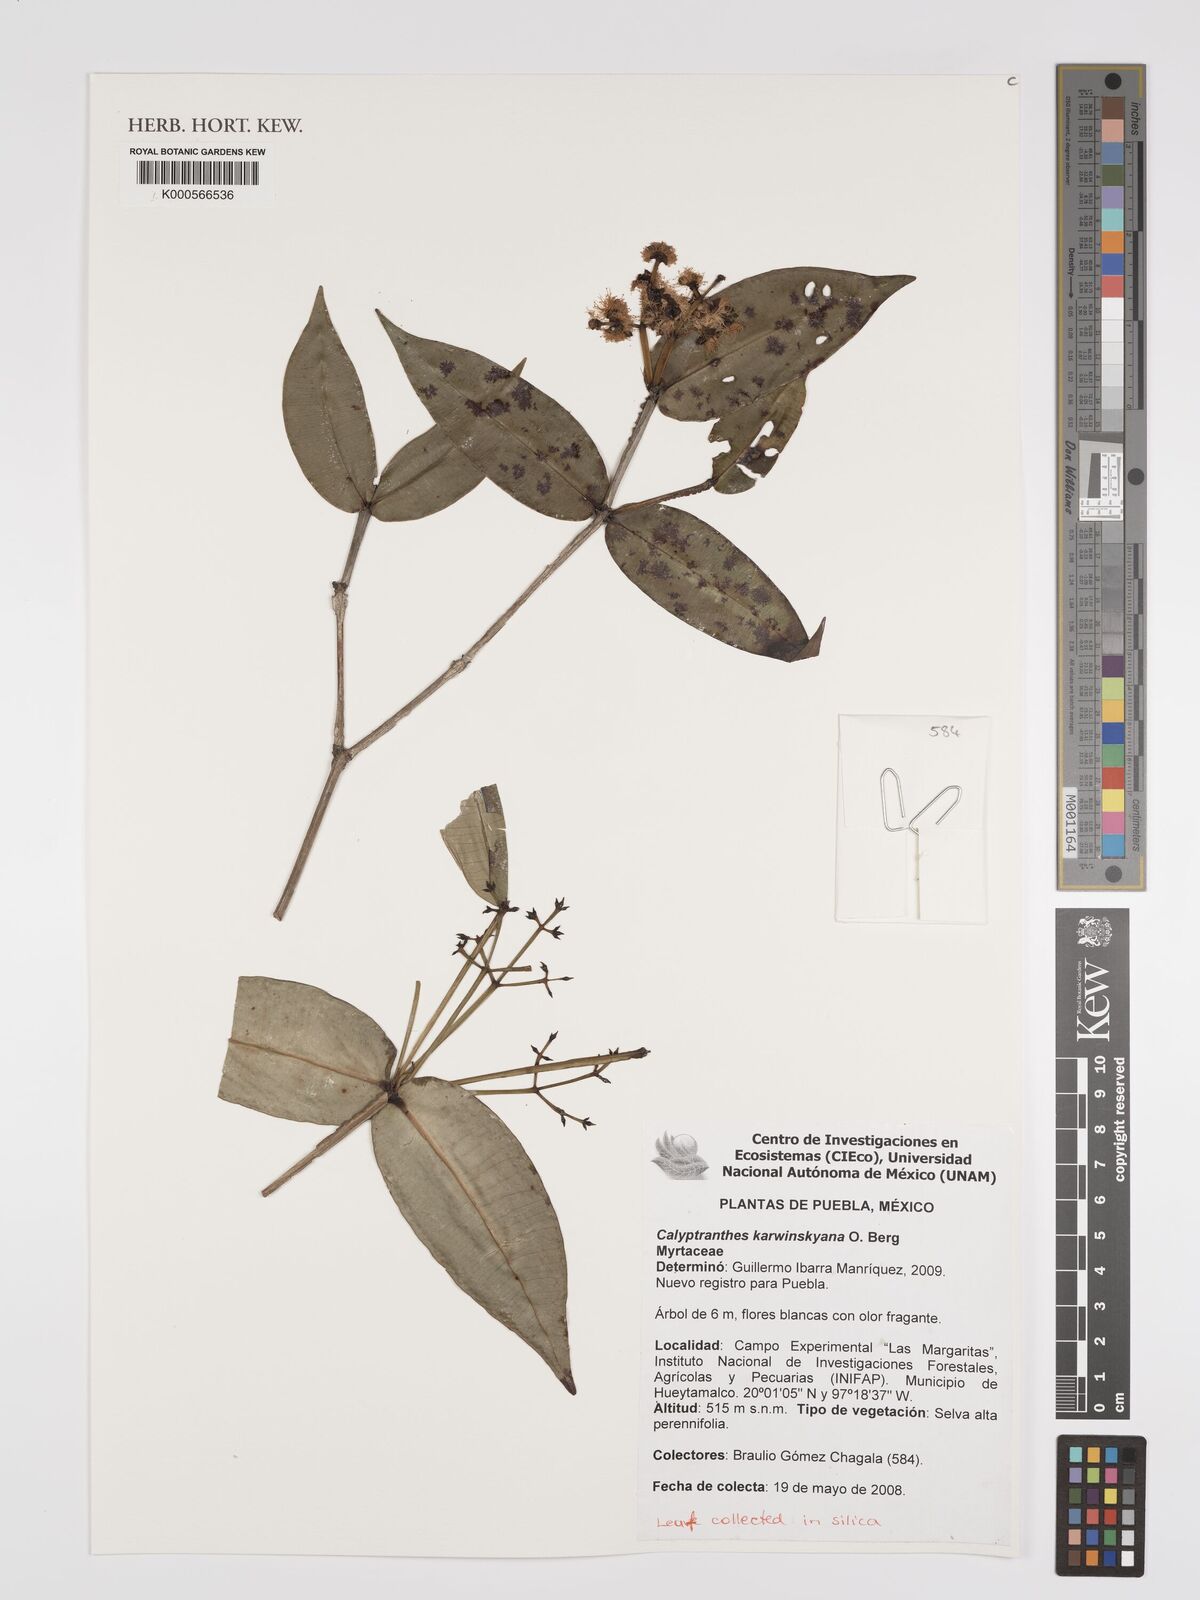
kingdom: Plantae
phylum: Tracheophyta
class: Magnoliopsida
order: Myrtales
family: Myrtaceae
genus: Myrcia
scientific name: Myrcia karwinskyana
